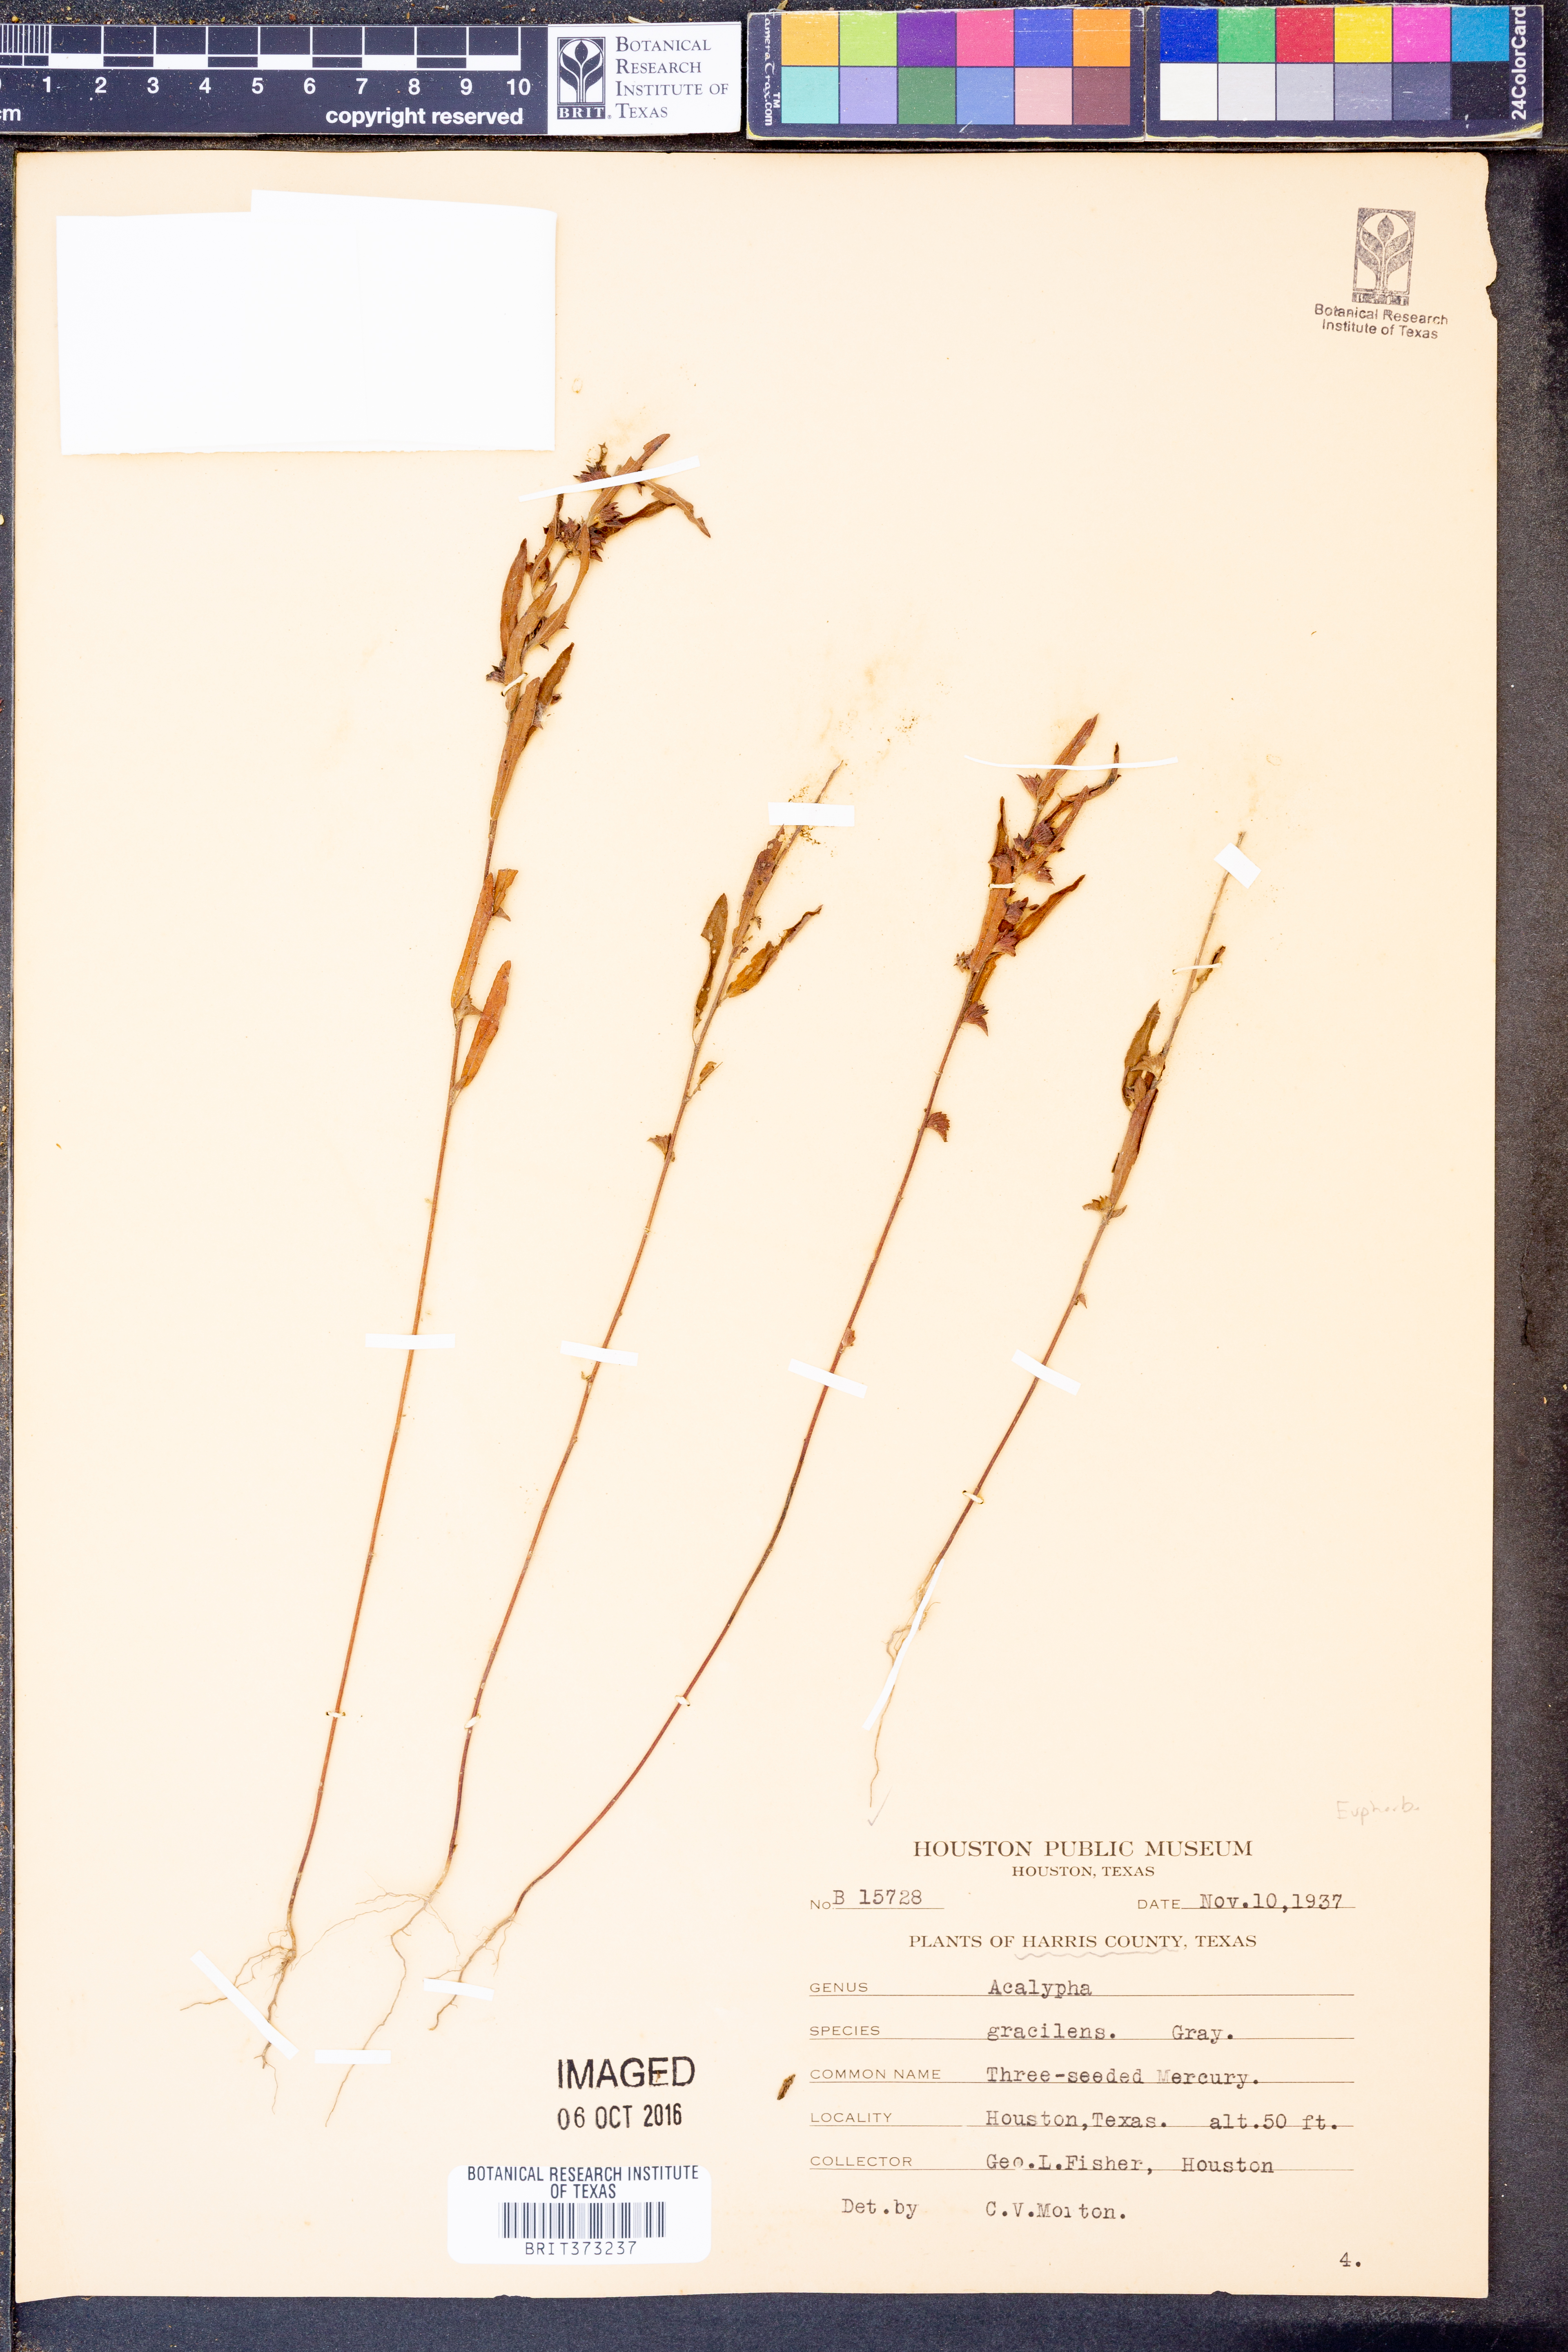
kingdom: Plantae
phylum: Tracheophyta
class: Magnoliopsida
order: Malpighiales
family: Euphorbiaceae
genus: Acalypha
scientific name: Acalypha gracilens
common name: Slender three-seeded mercury
